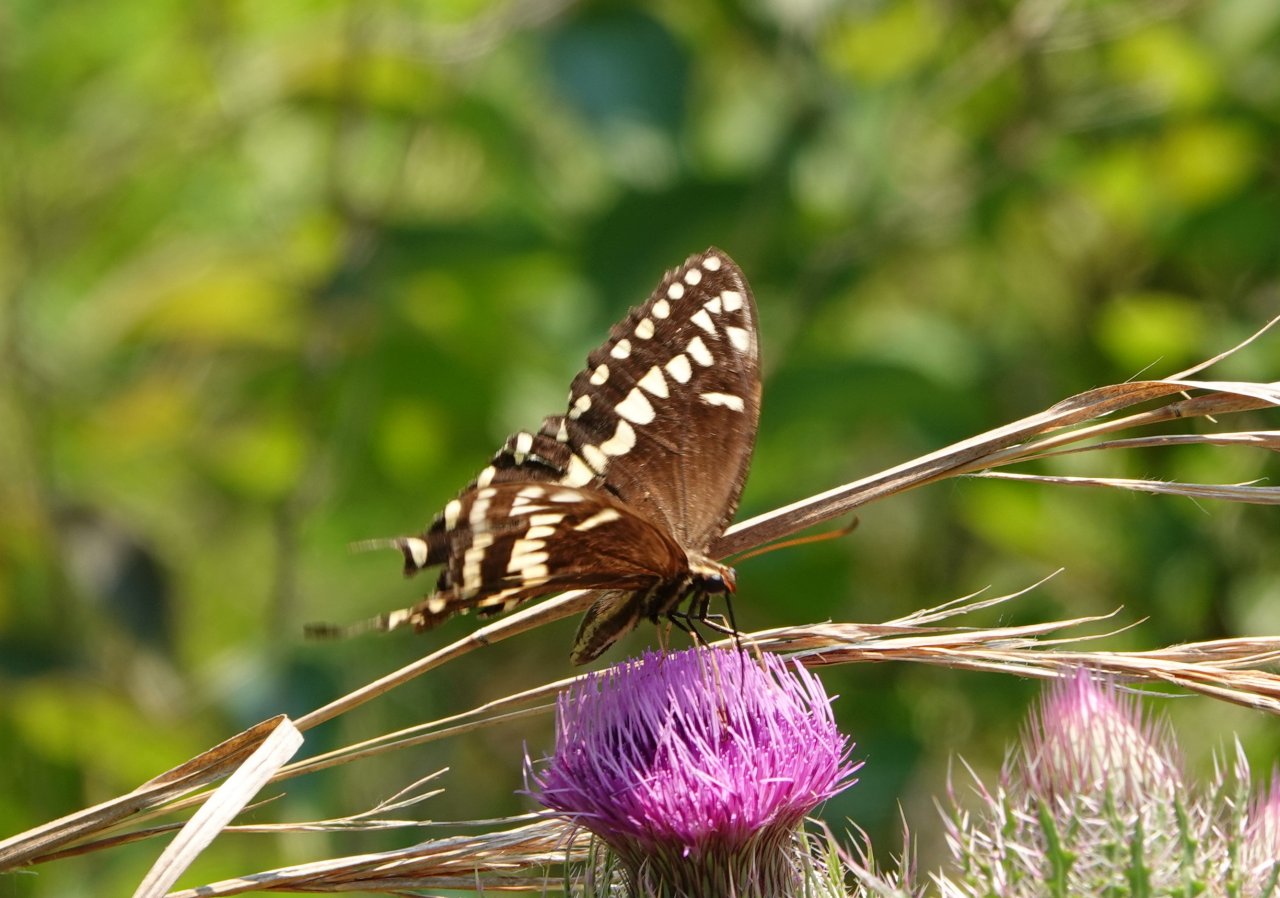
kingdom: Animalia
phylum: Arthropoda
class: Insecta
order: Lepidoptera
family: Papilionidae
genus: Pterourus
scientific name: Pterourus palamedes
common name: Palamedes Swallowtail
